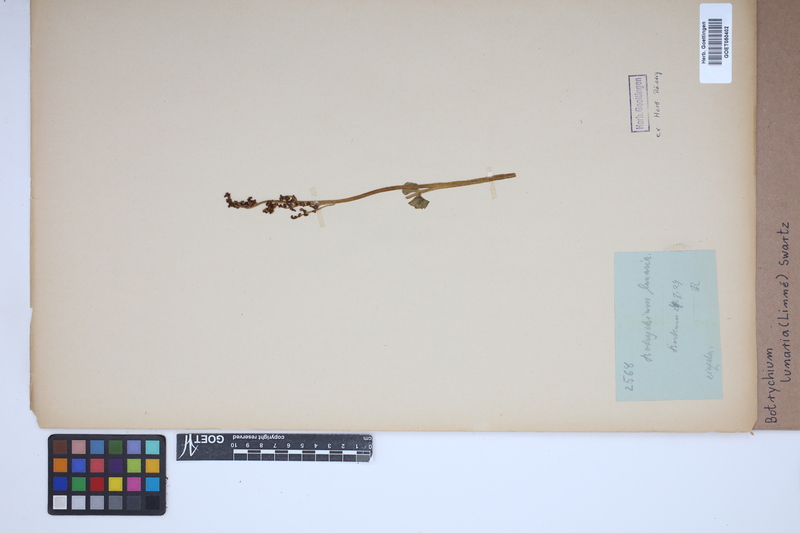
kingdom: Plantae
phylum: Tracheophyta
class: Polypodiopsida
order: Ophioglossales
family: Ophioglossaceae
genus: Botrychium
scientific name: Botrychium lunaria
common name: Moonwort
